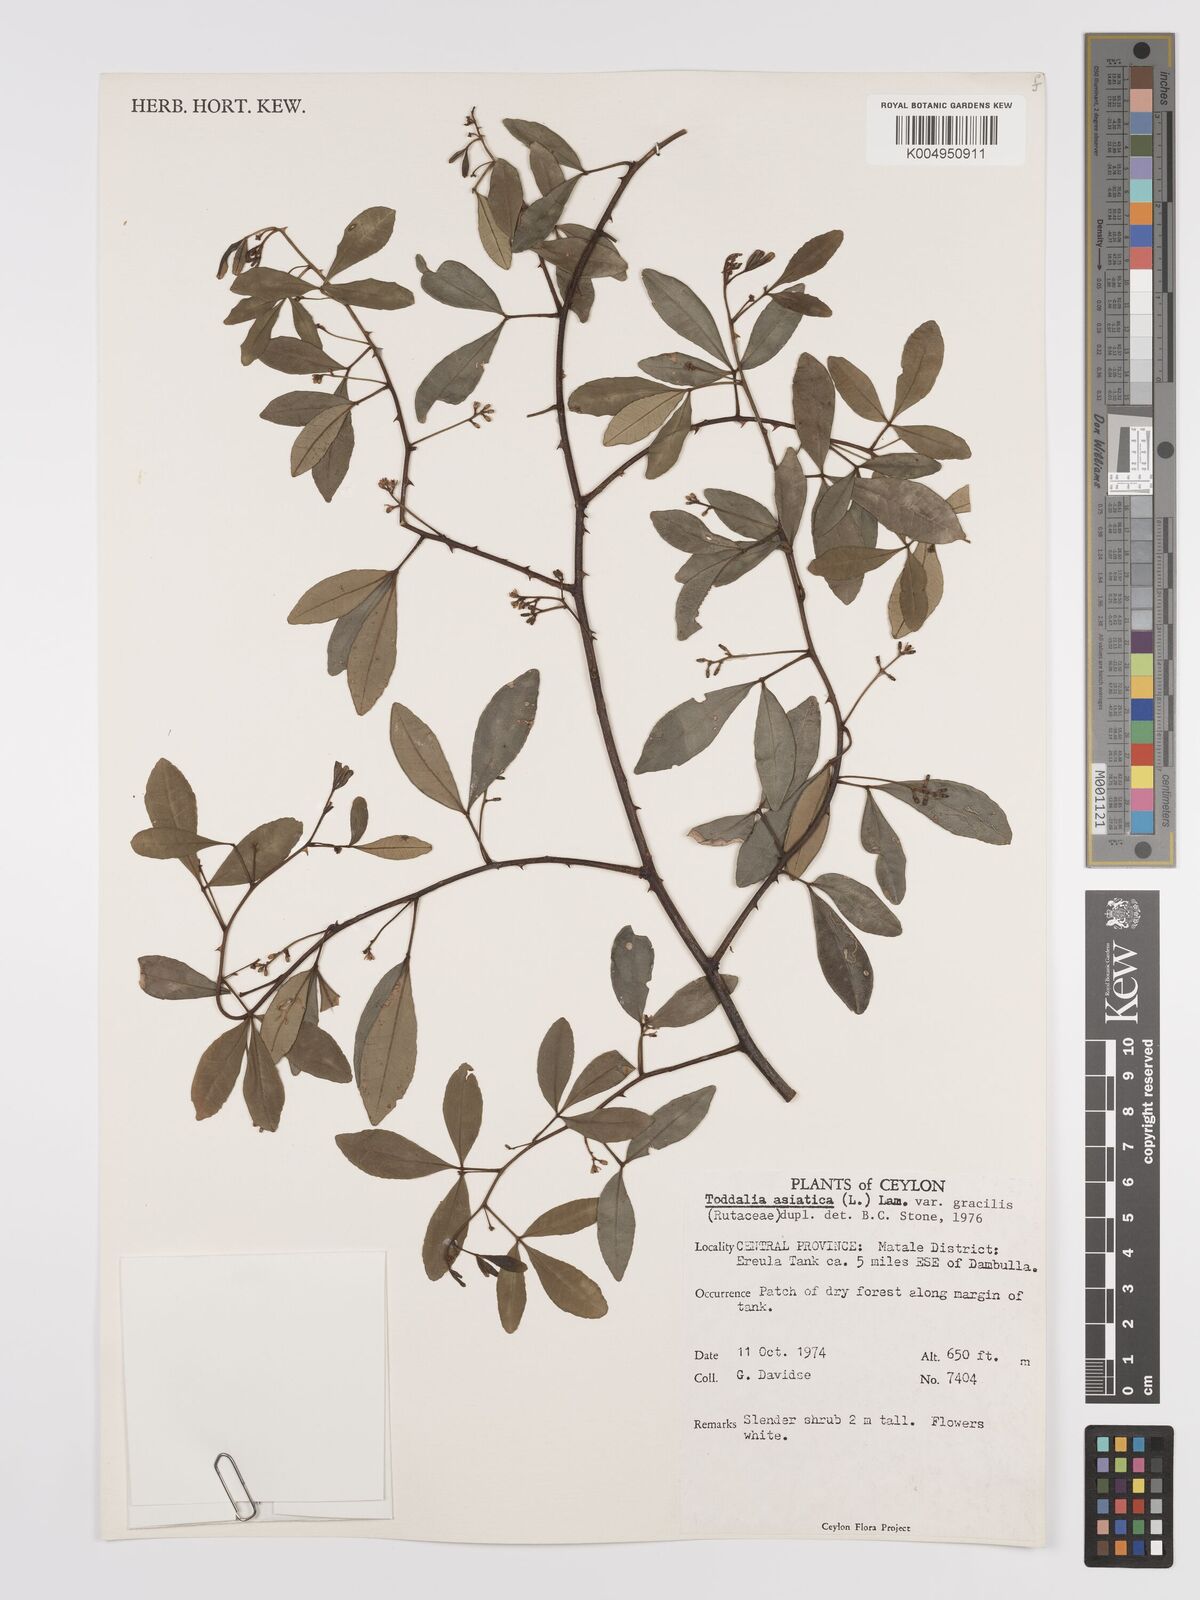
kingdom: Plantae
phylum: Tracheophyta
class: Magnoliopsida
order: Sapindales
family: Rutaceae
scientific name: Rutaceae
